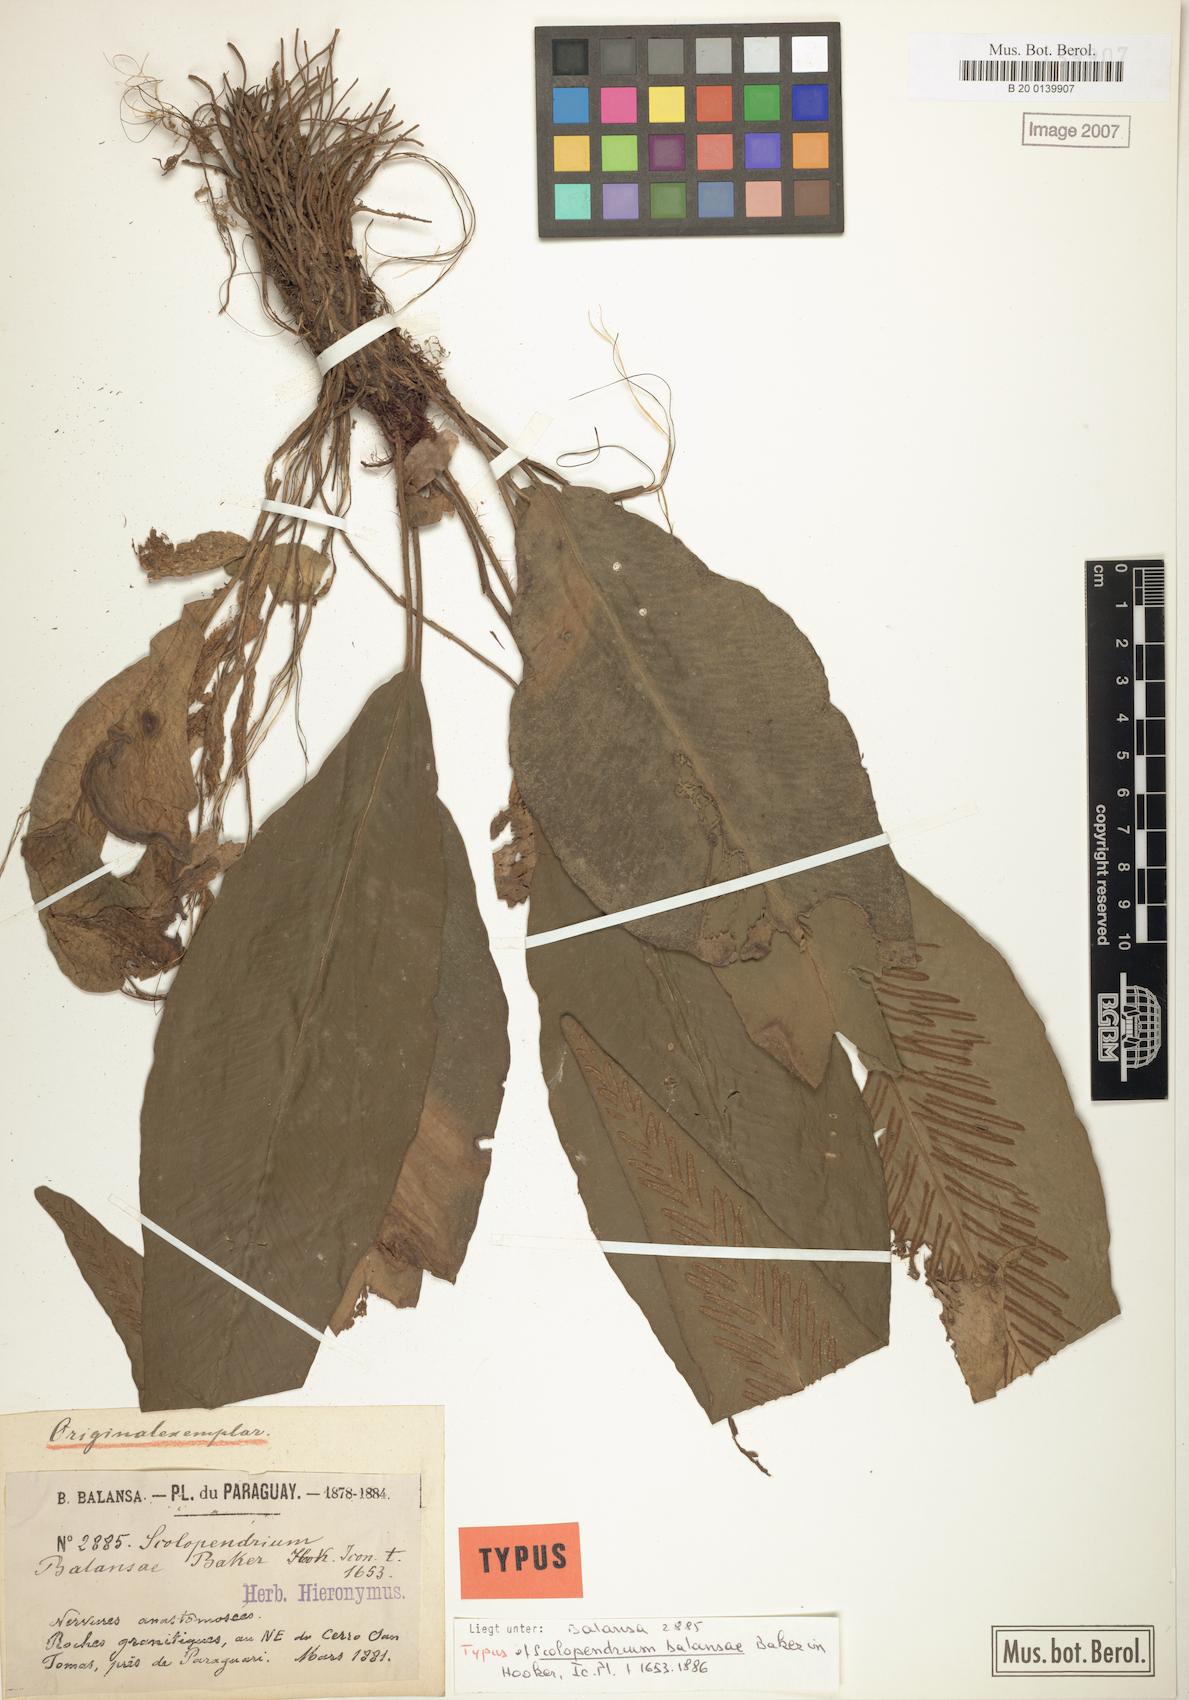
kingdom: Plantae
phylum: Tracheophyta
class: Polypodiopsida
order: Polypodiales
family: Aspleniaceae
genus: Asplenium
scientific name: Asplenium balansae
